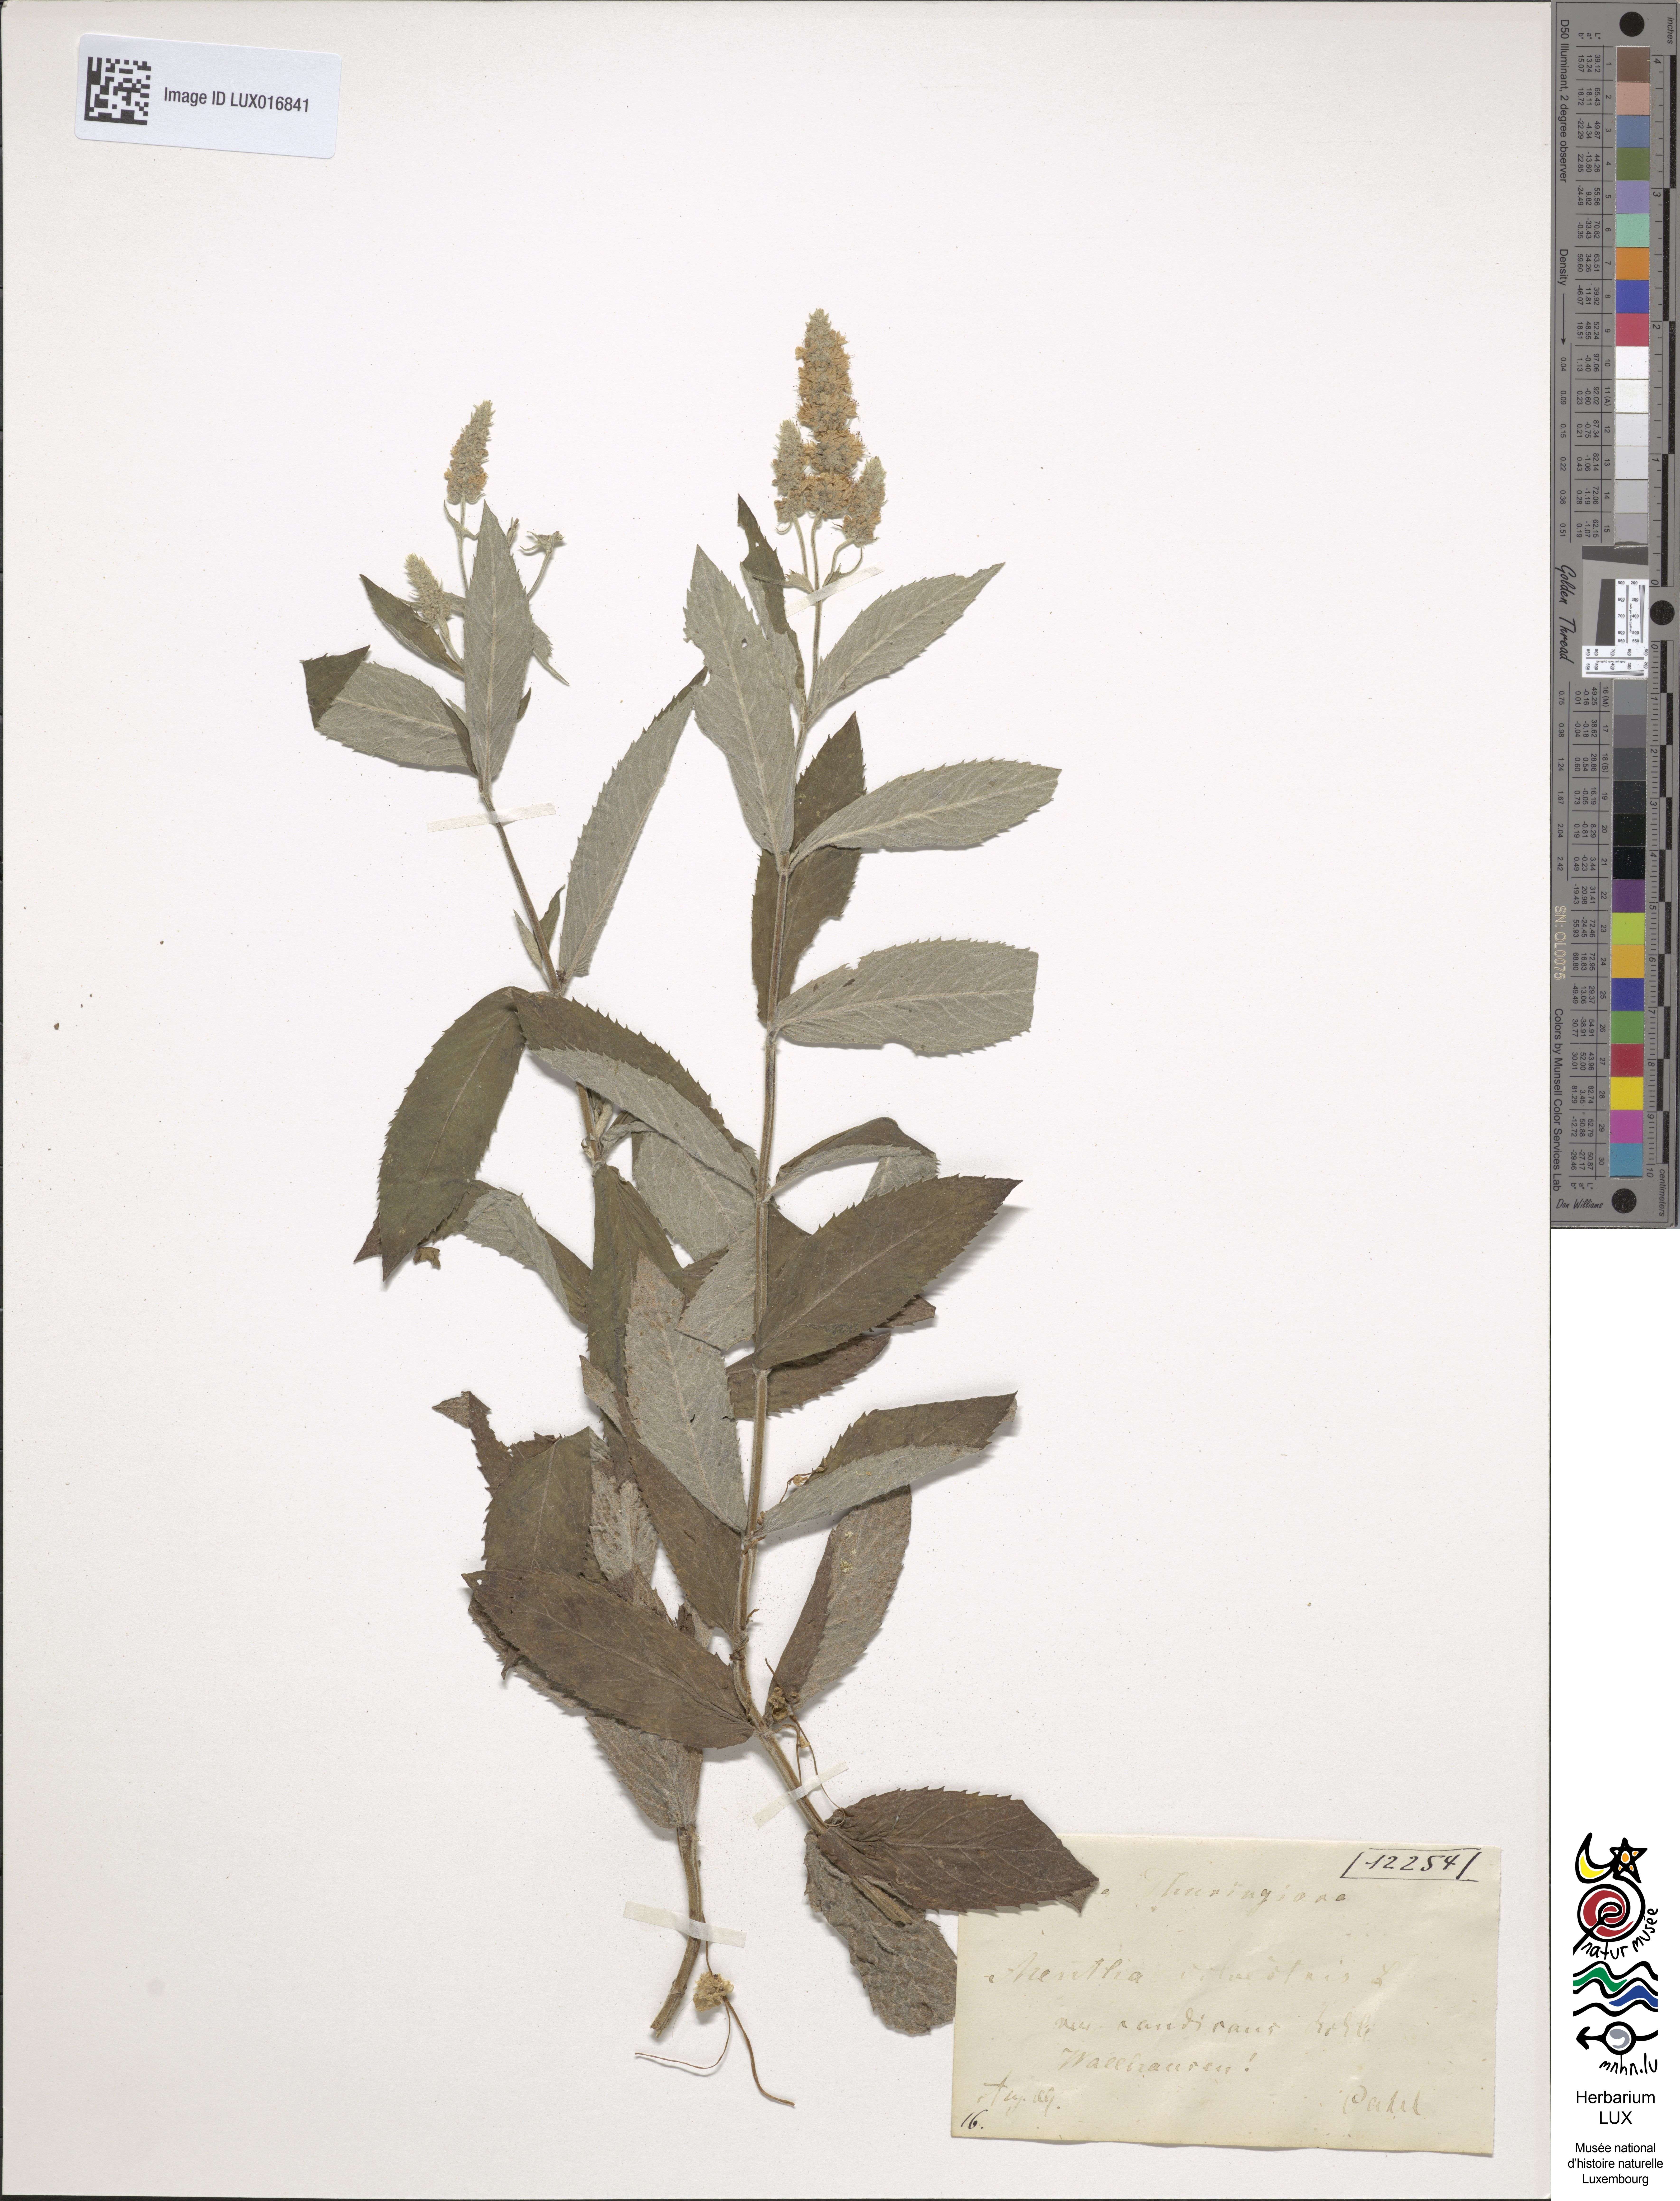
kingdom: Plantae
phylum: Tracheophyta
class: Magnoliopsida
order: Lamiales
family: Lamiaceae
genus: Mentha
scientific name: Mentha longifolia
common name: Horse mint
